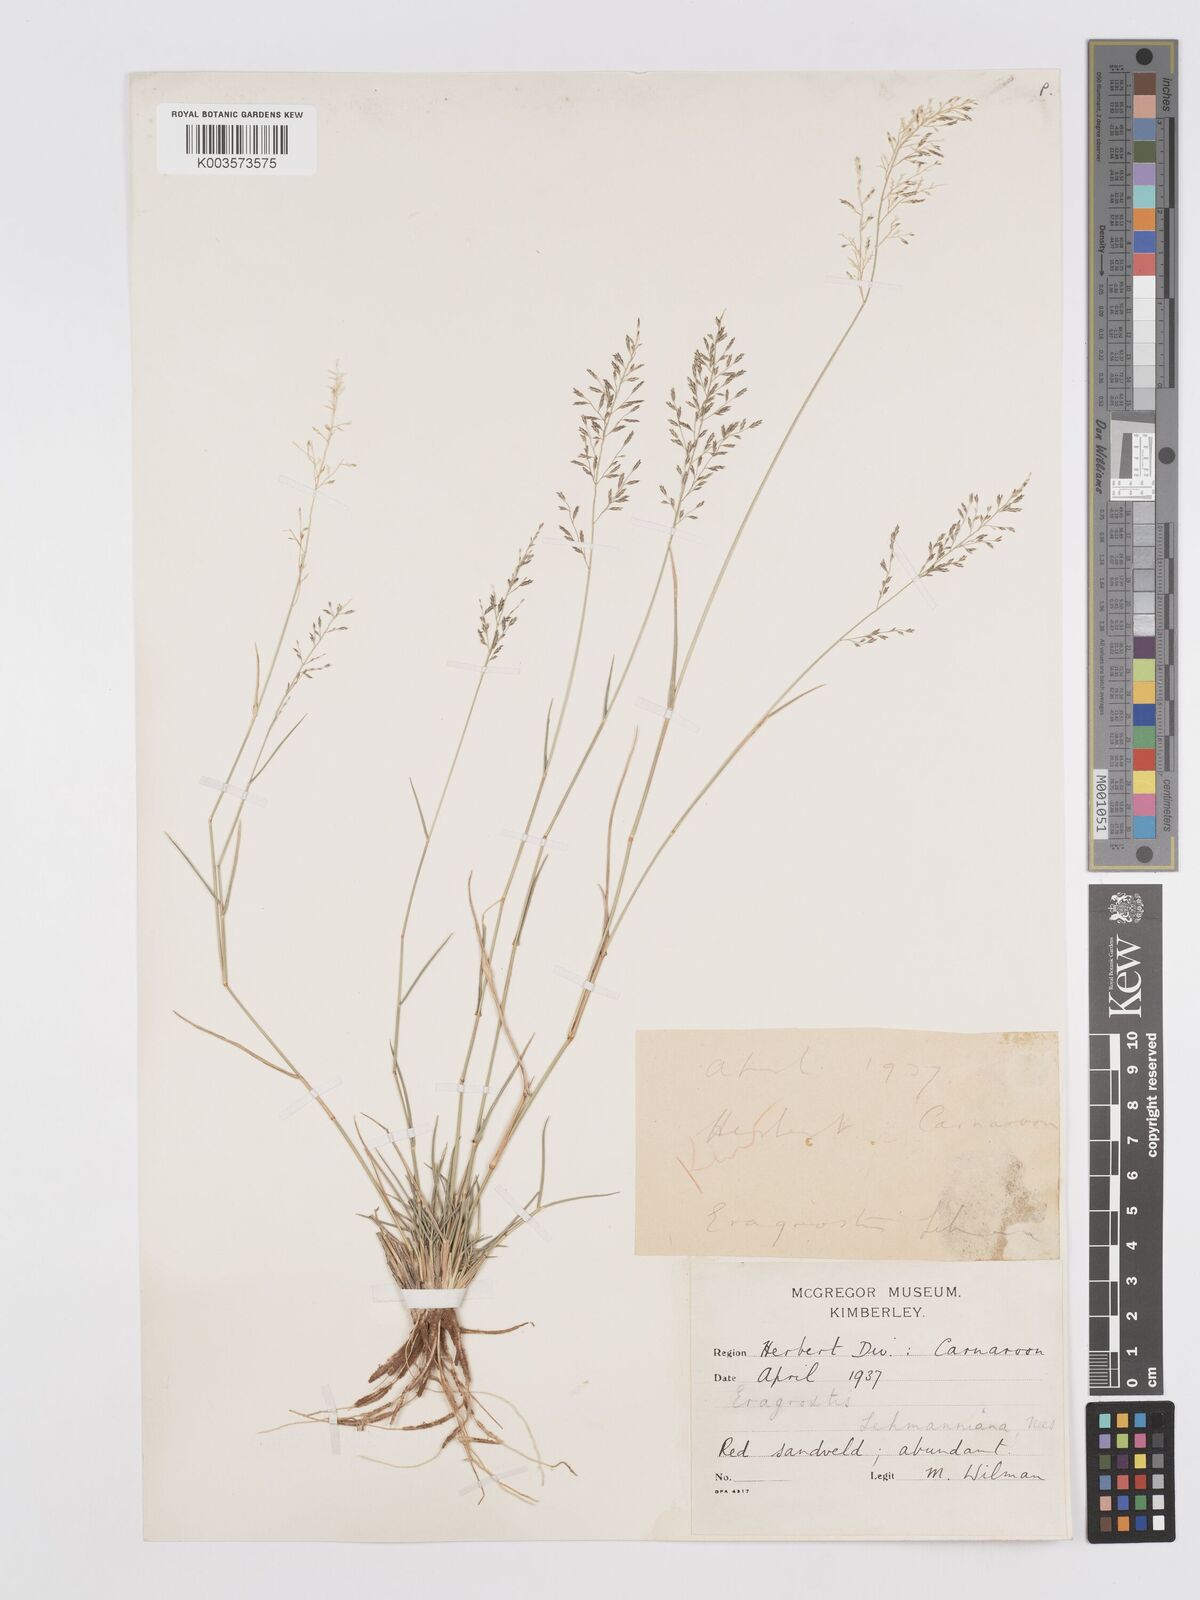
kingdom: Plantae
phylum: Tracheophyta
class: Liliopsida
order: Poales
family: Poaceae
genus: Eragrostis
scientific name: Eragrostis lehmanniana
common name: Lehmann lovegrass
